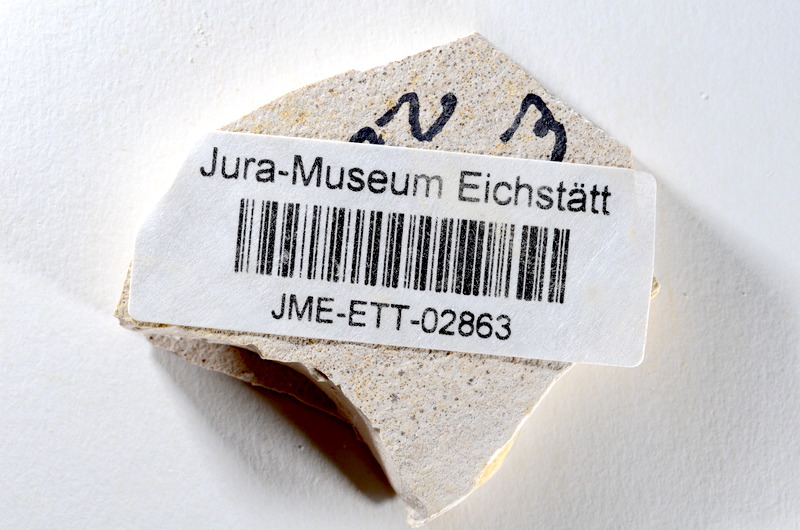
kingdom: Animalia
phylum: Chordata
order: Salmoniformes
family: Orthogonikleithridae
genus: Orthogonikleithrus
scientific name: Orthogonikleithrus hoelli
